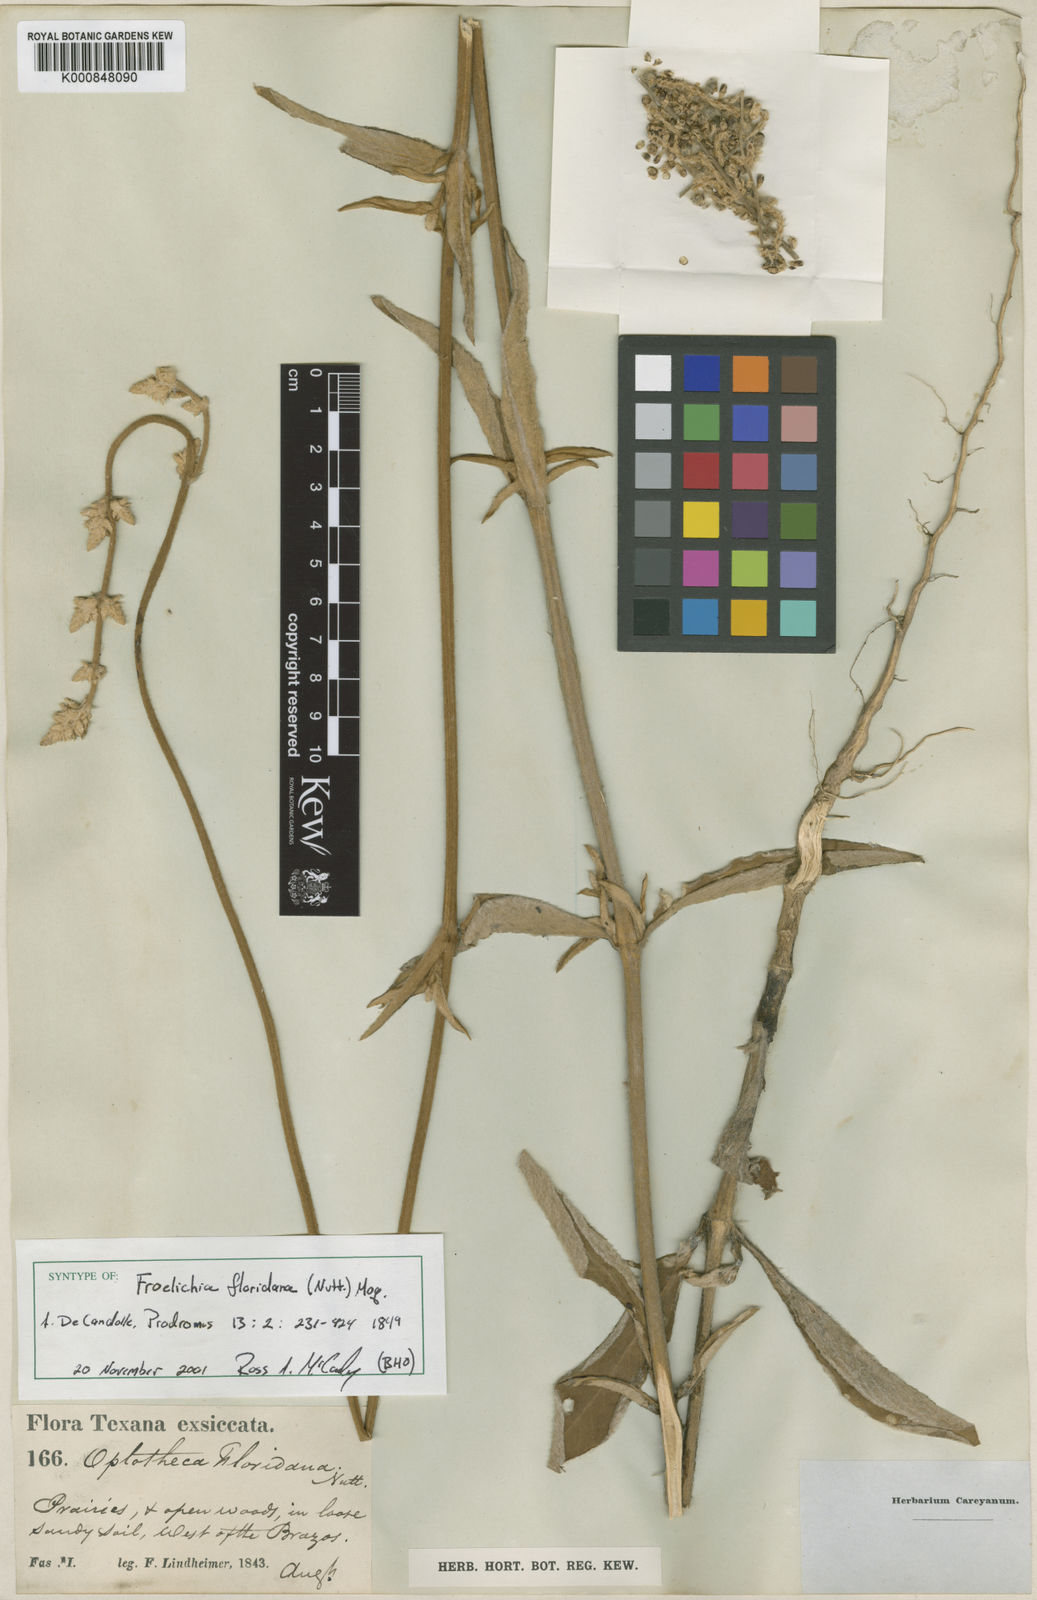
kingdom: Plantae
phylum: Tracheophyta
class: Magnoliopsida
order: Caryophyllales
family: Amaranthaceae
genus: Froelichia
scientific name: Froelichia floridana
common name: Florida snake-cotton
